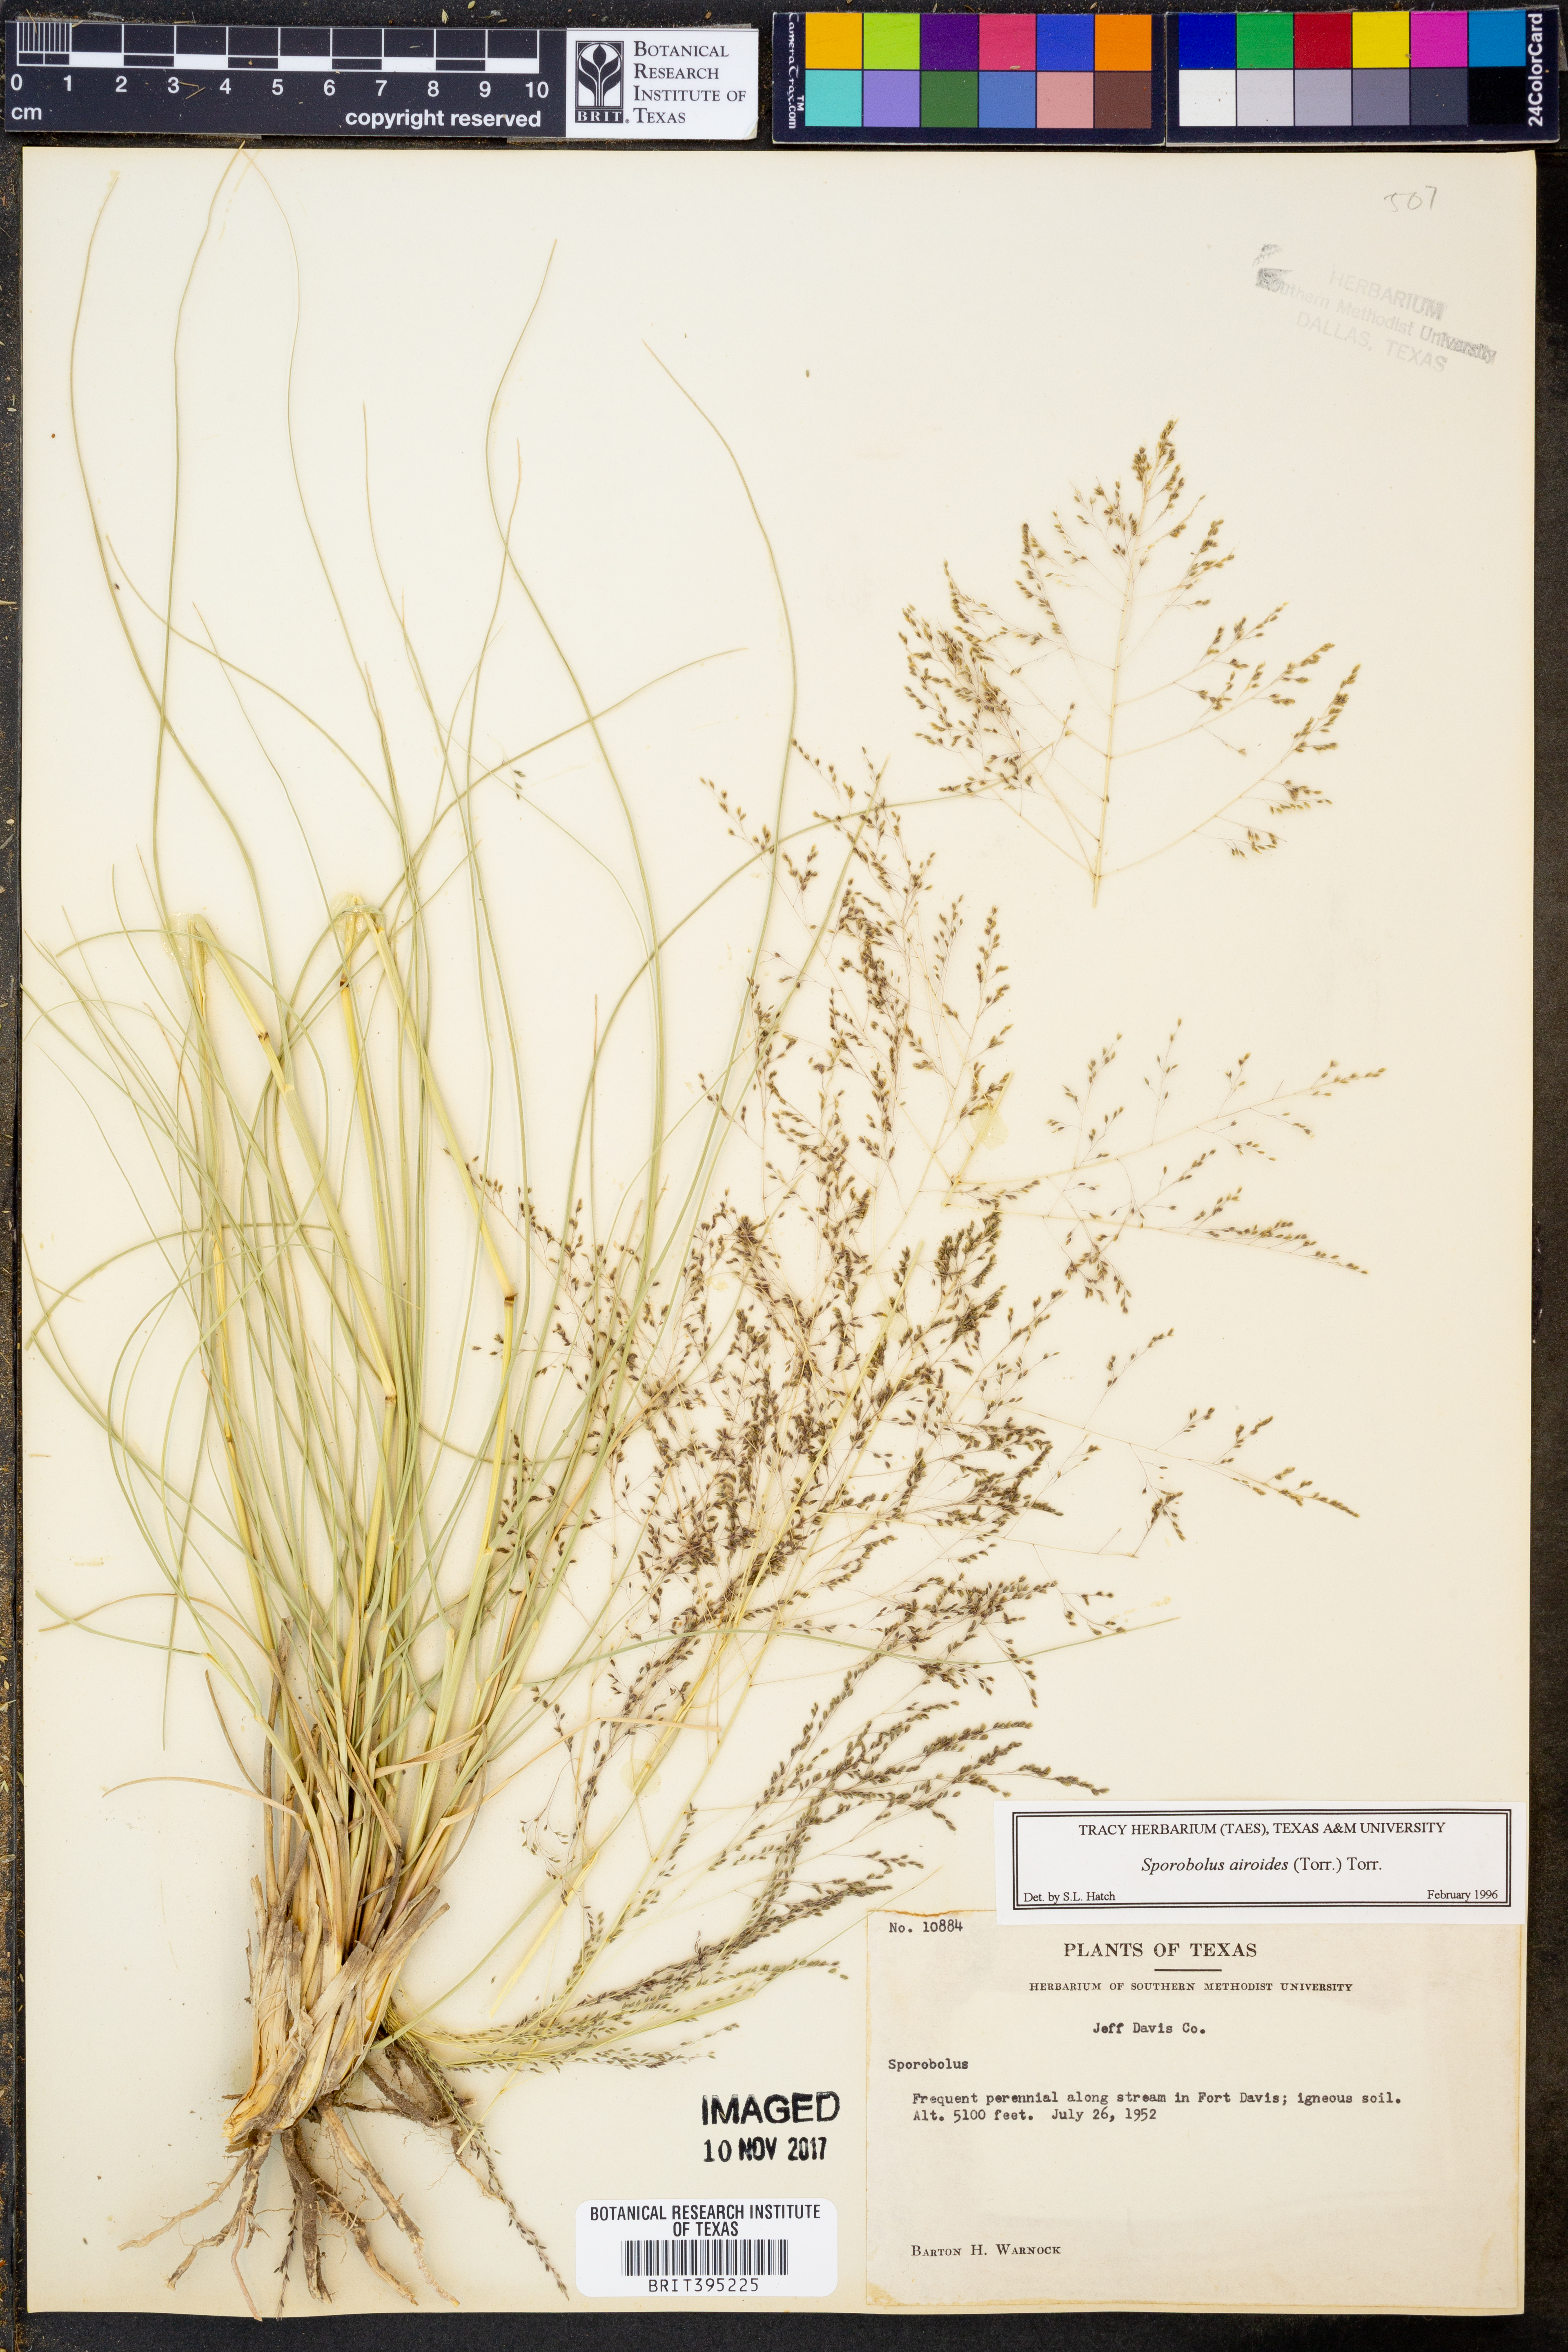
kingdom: Plantae
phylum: Tracheophyta
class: Liliopsida
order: Poales
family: Poaceae
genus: Sporobolus
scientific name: Sporobolus airoides
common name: Alkali sacaton
